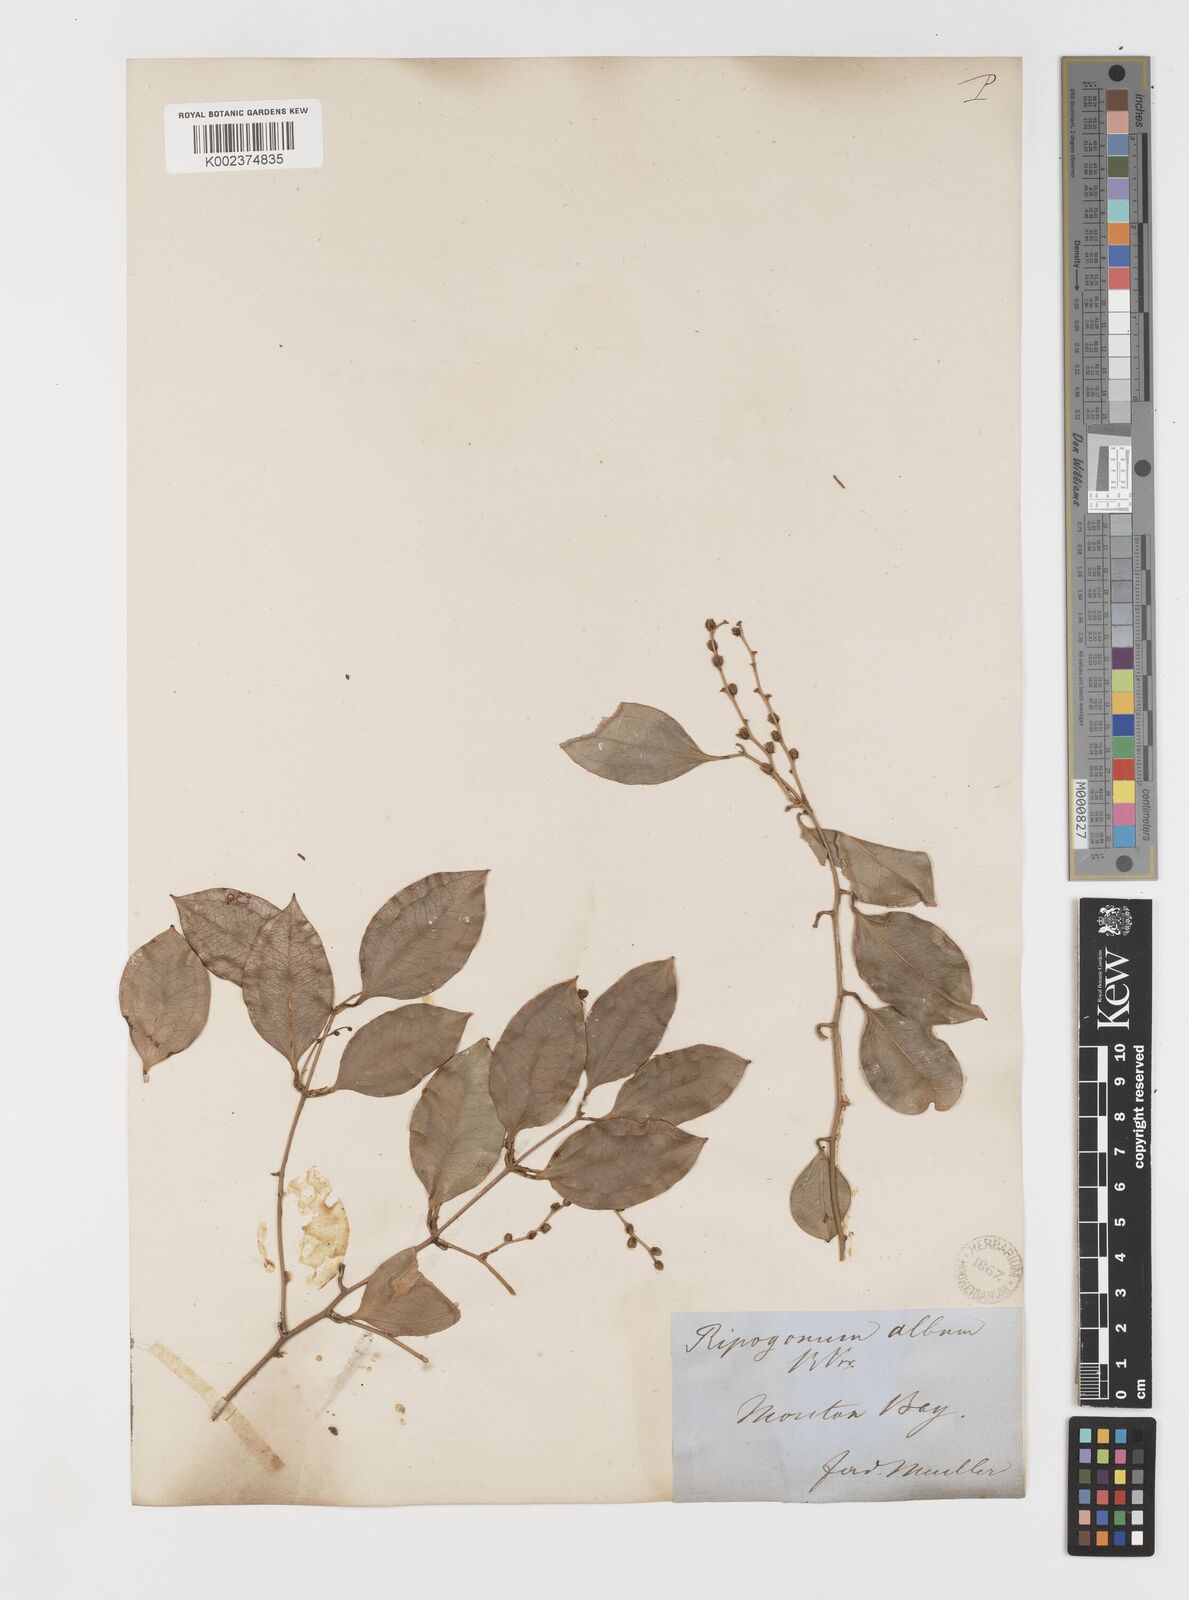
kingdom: Plantae
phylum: Tracheophyta
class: Liliopsida
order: Liliales
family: Ripogonaceae
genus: Ripogonum
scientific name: Ripogonum album
